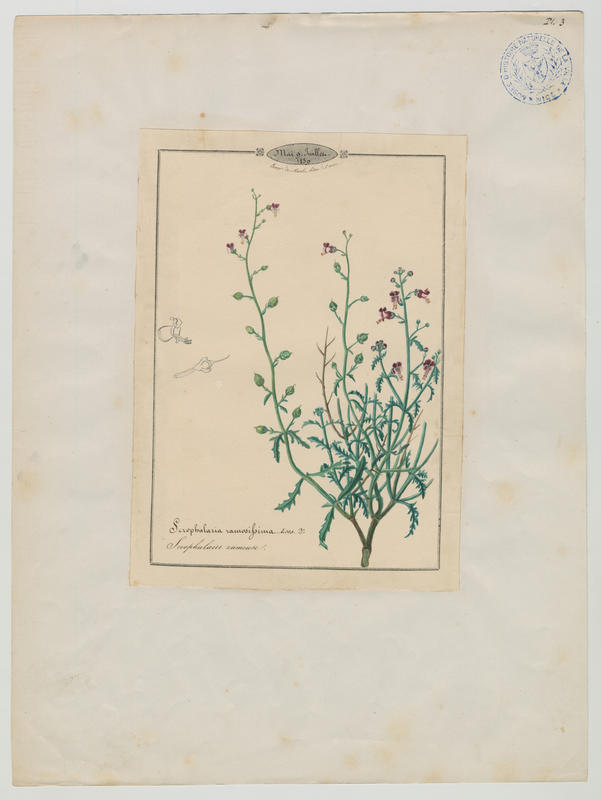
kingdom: Plantae
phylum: Tracheophyta
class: Magnoliopsida
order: Lamiales
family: Scrophulariaceae
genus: Scrophularia
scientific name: Scrophularia canina
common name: French figwort
